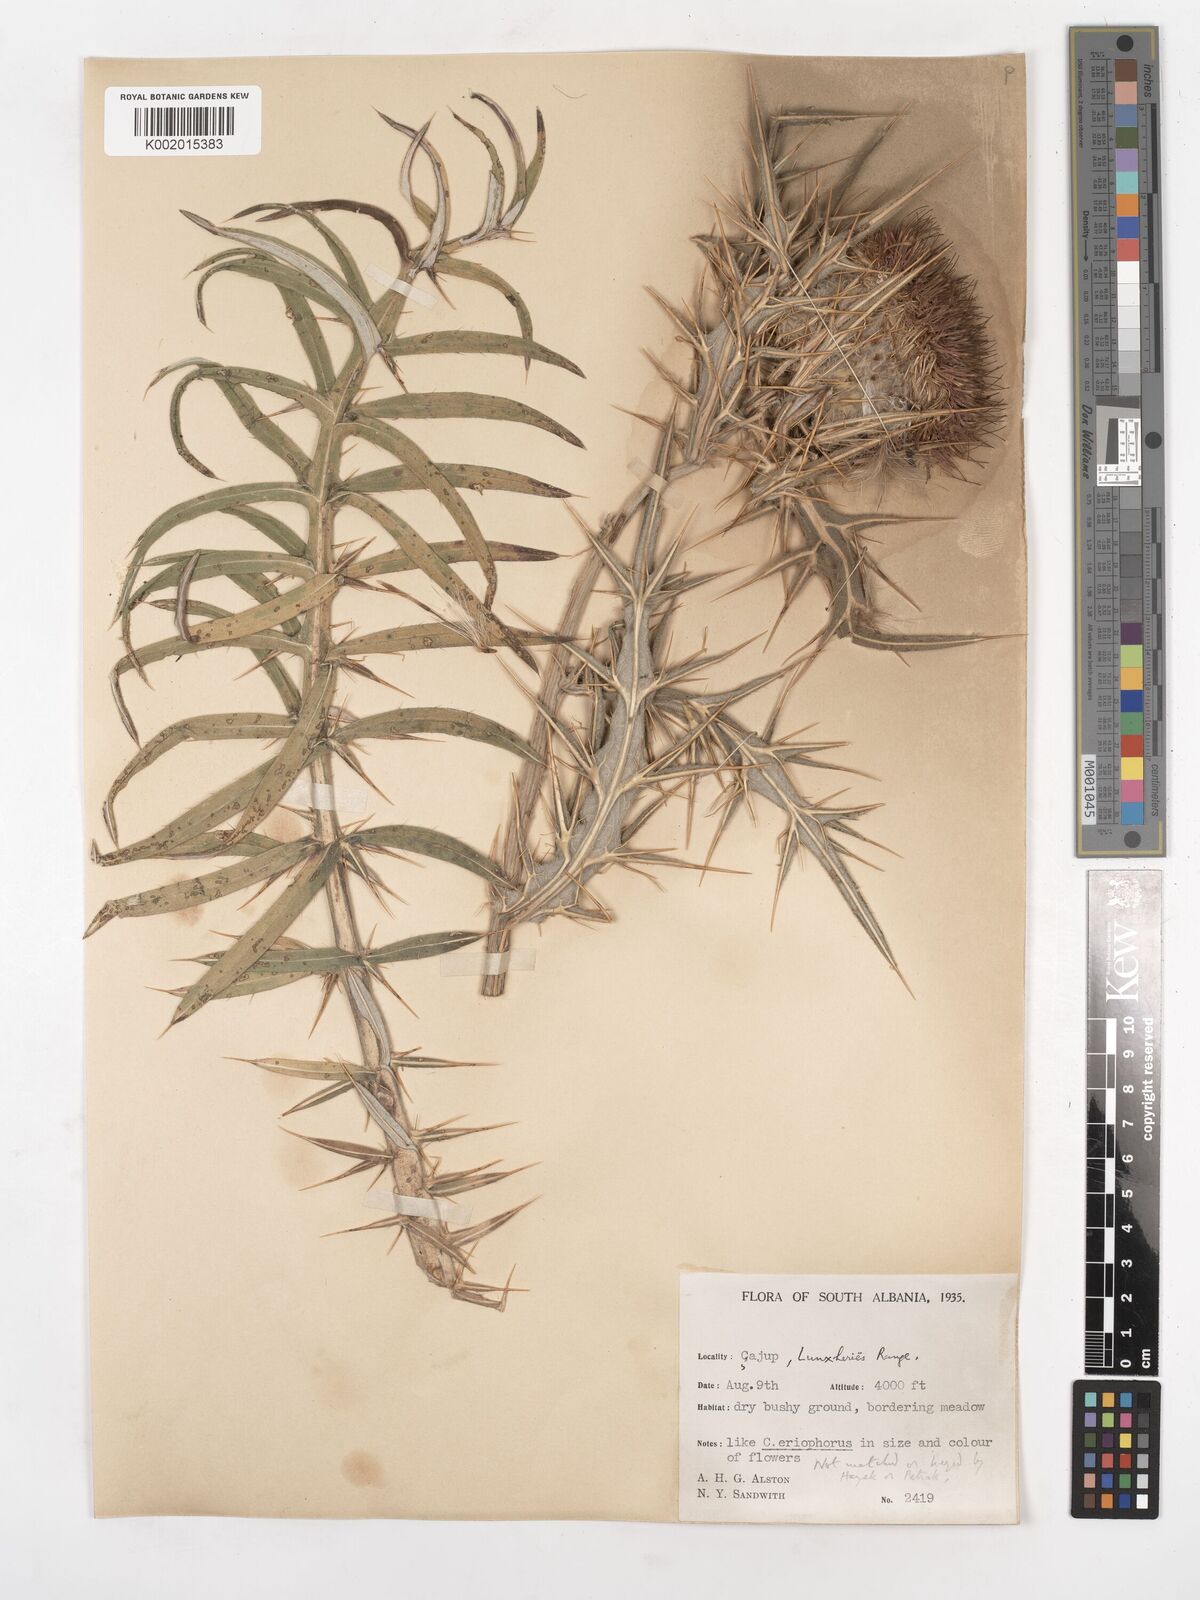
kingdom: Plantae
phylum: Tracheophyta
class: Magnoliopsida
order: Asterales
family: Asteraceae
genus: Lophiolepis
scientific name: Lophiolepis
